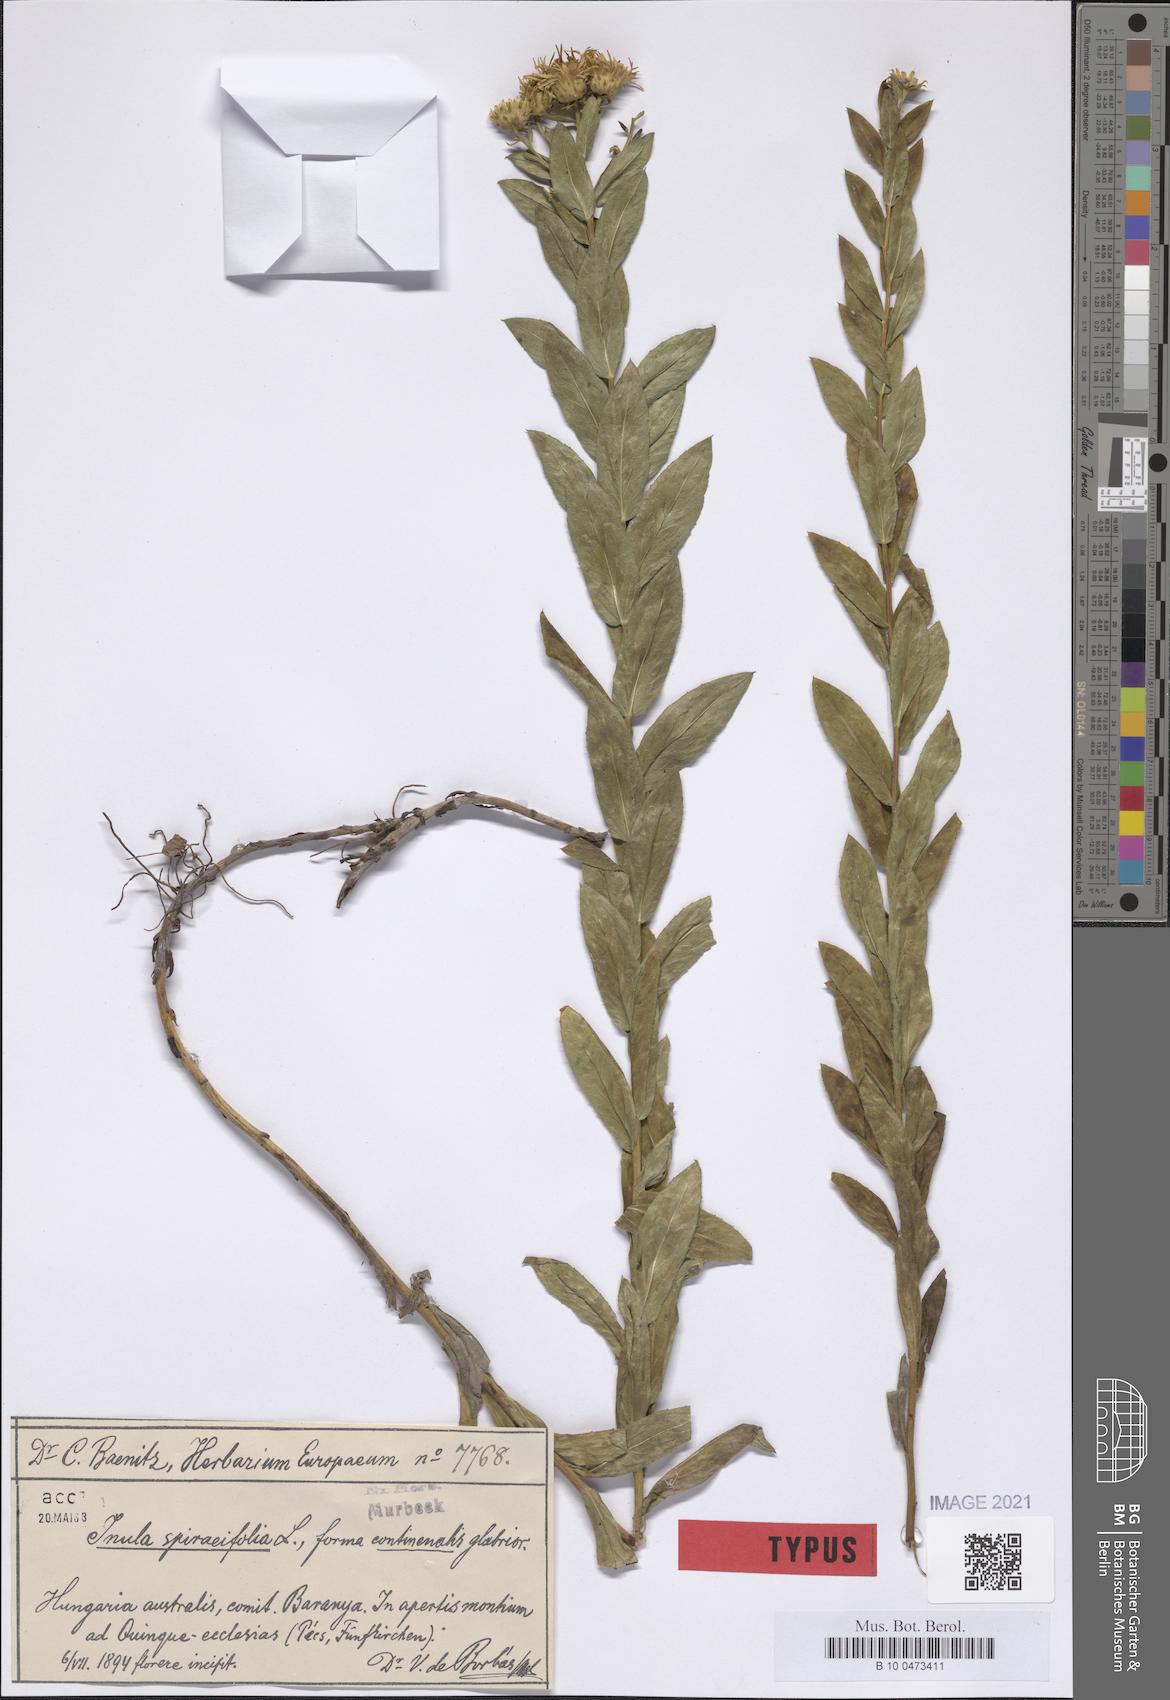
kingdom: Plantae
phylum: Tracheophyta
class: Magnoliopsida
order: Asterales
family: Asteraceae
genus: Pentanema
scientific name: Pentanema spiraeifolium
